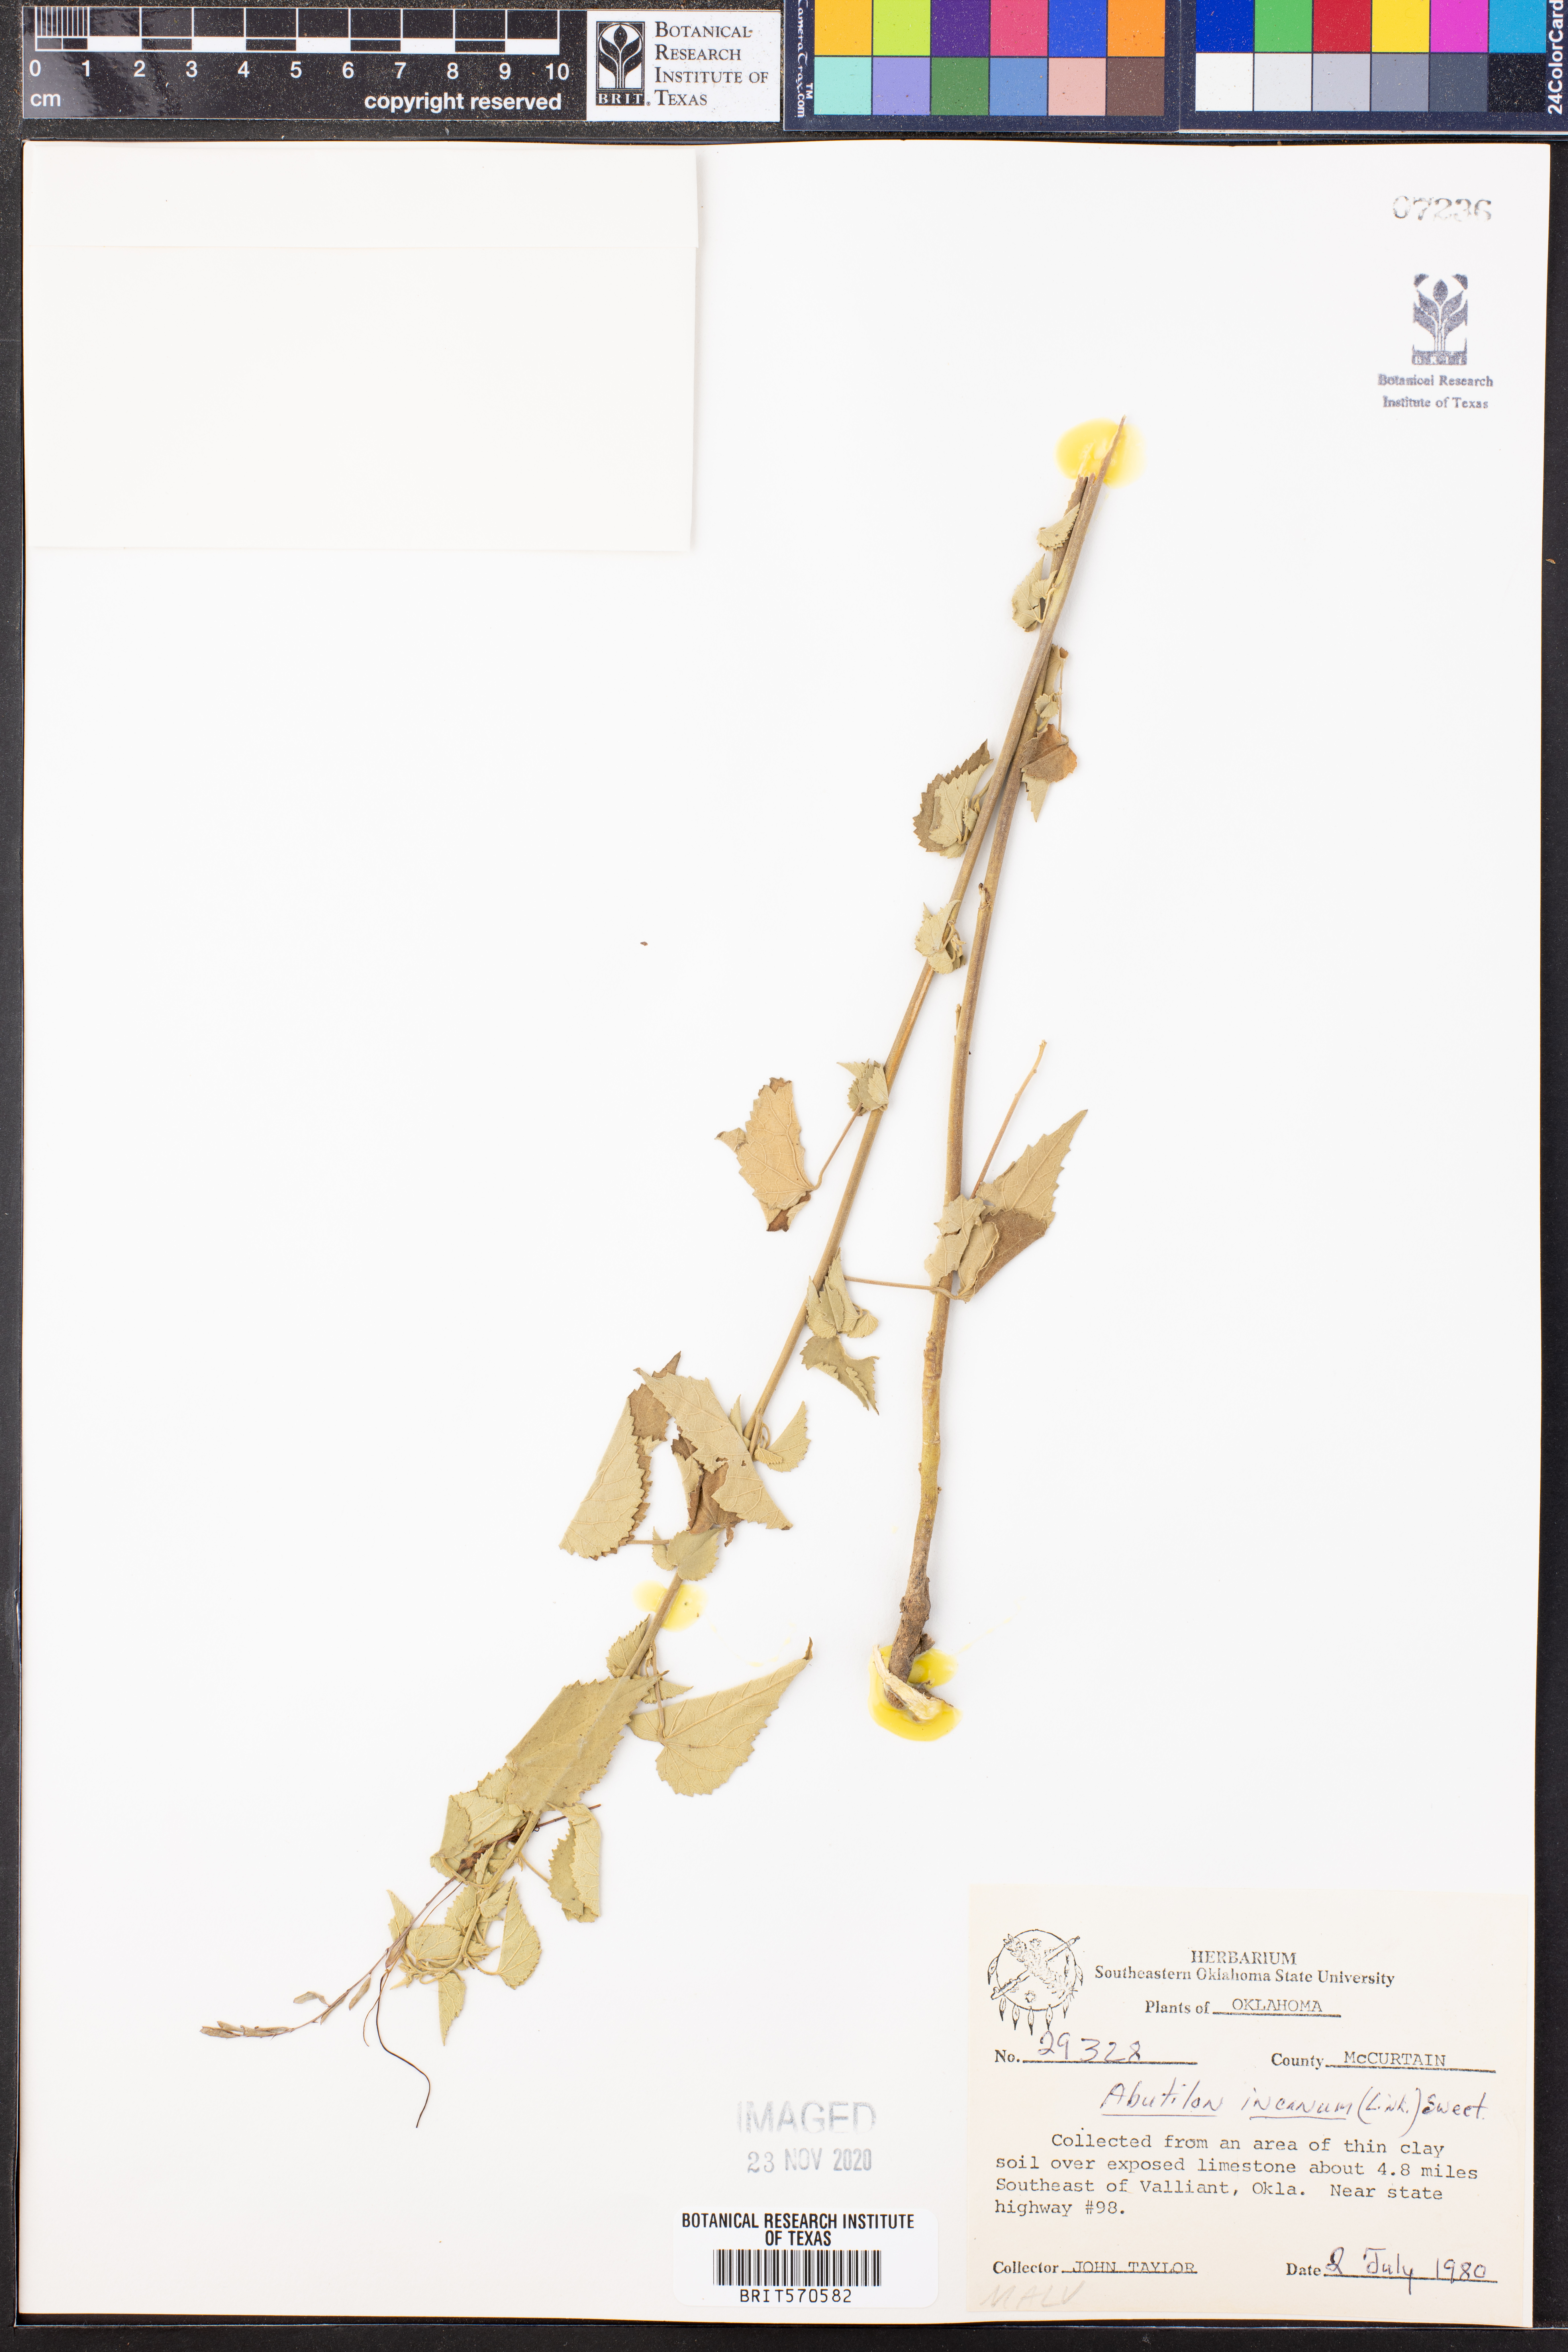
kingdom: Plantae
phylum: Tracheophyta
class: Magnoliopsida
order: Malvales
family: Malvaceae
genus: Abutilon
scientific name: Abutilon incanum
